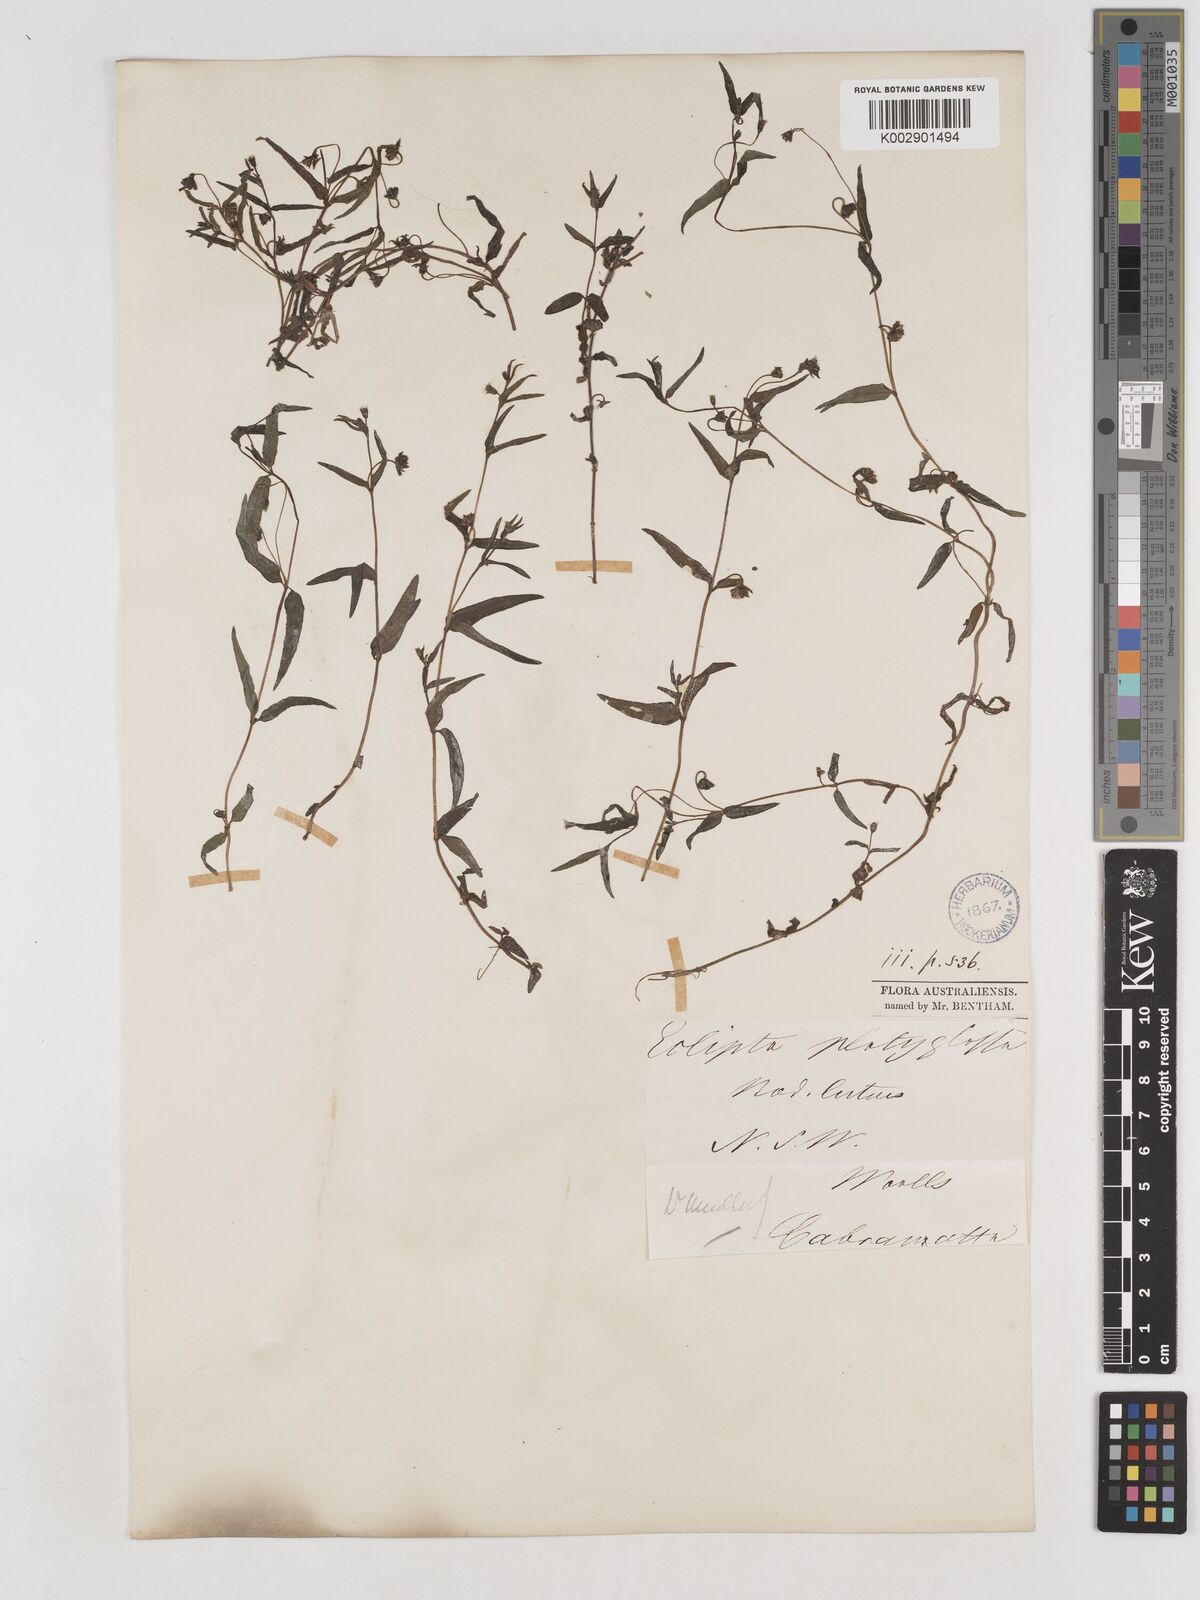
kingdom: Plantae
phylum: Tracheophyta
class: Magnoliopsida
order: Asterales
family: Asteraceae
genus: Eclipta
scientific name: Eclipta platyglossa
